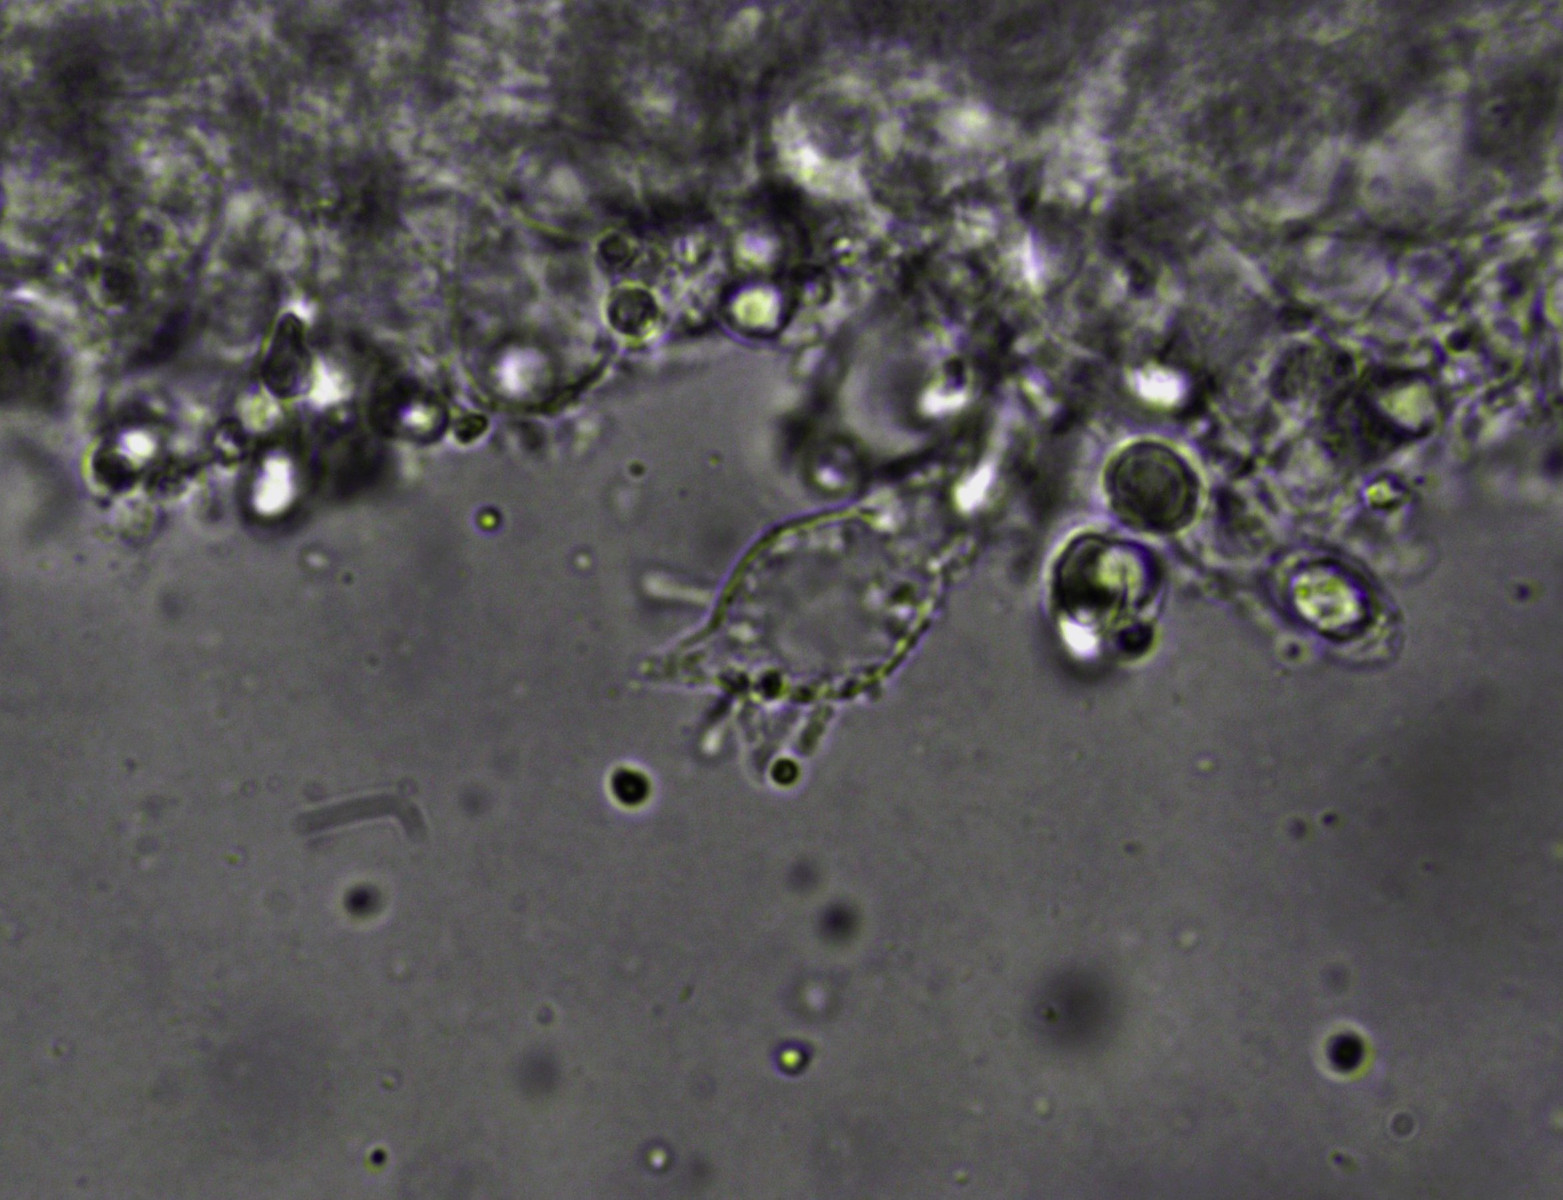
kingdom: Fungi
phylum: Basidiomycota
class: Agaricomycetes
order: Agaricales
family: Mycenaceae
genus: Mycena
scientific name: Mycena filopes
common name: jod-huesvamp
